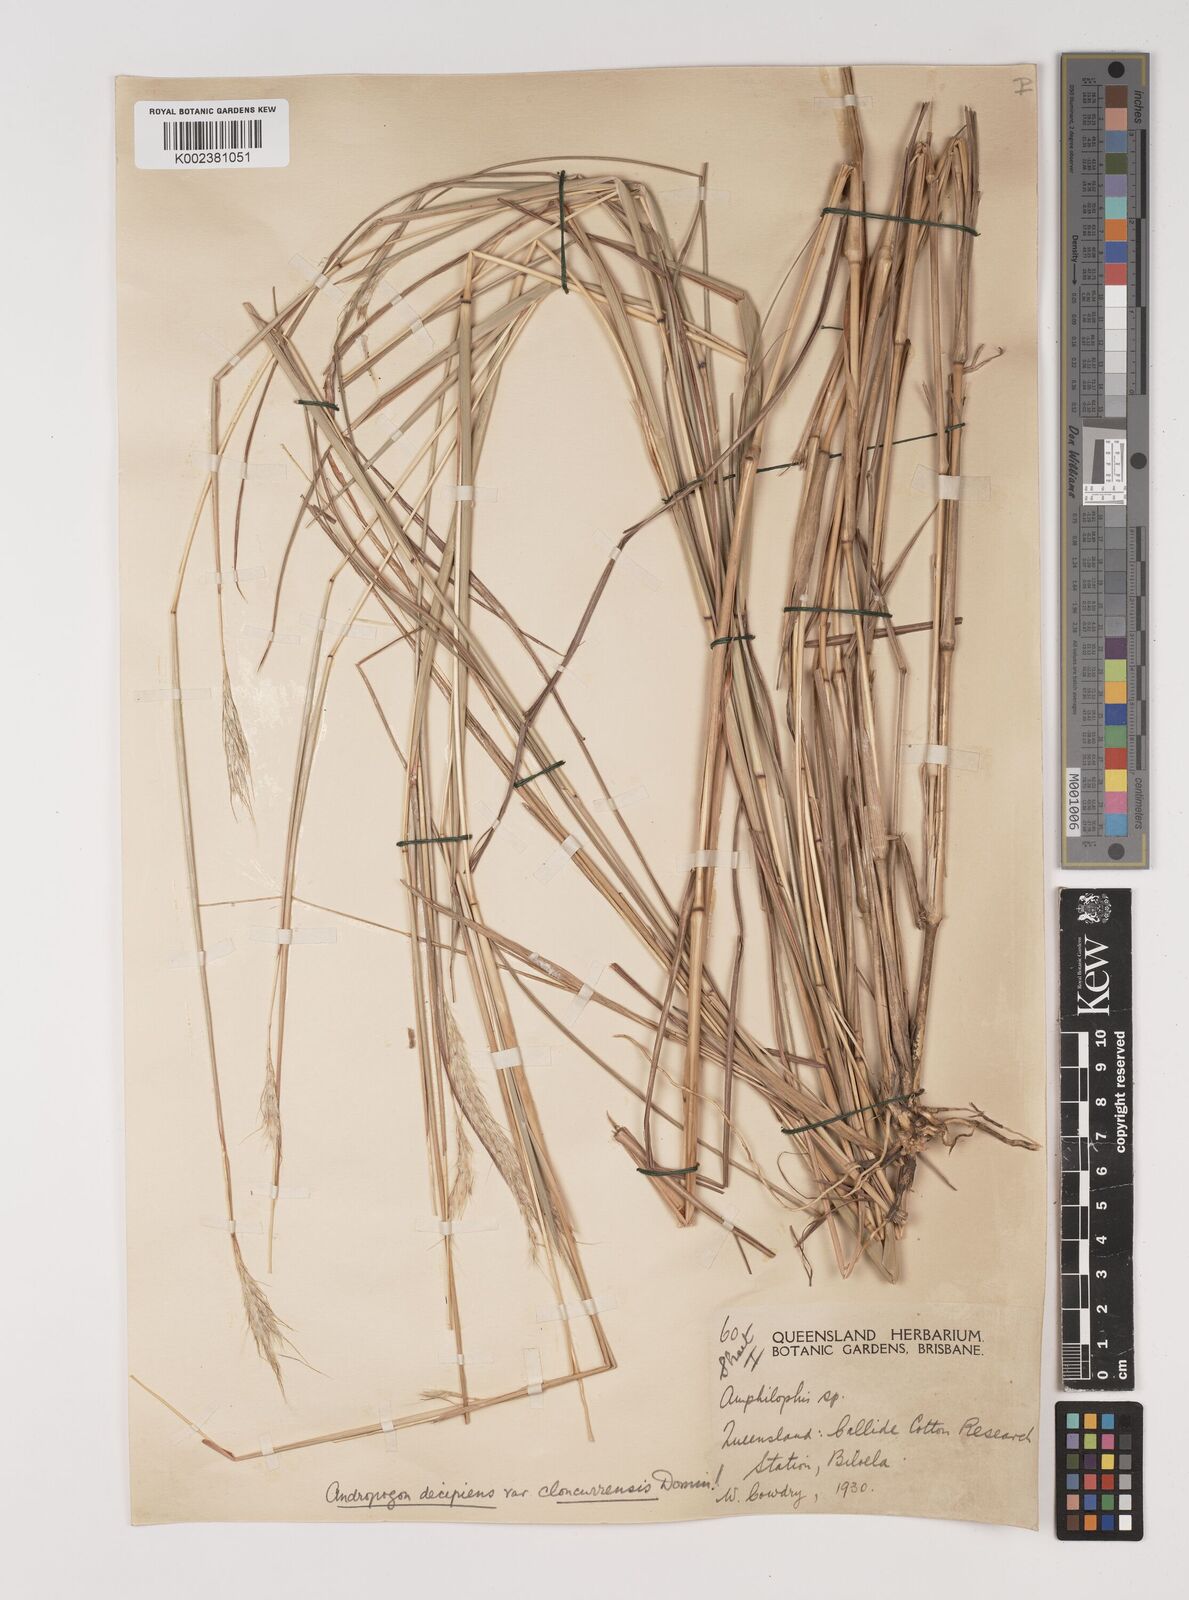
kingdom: Plantae
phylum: Tracheophyta
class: Liliopsida
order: Poales
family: Poaceae
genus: Bothriochloa
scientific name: Bothriochloa decipiens
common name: Pitted-bluegrass
